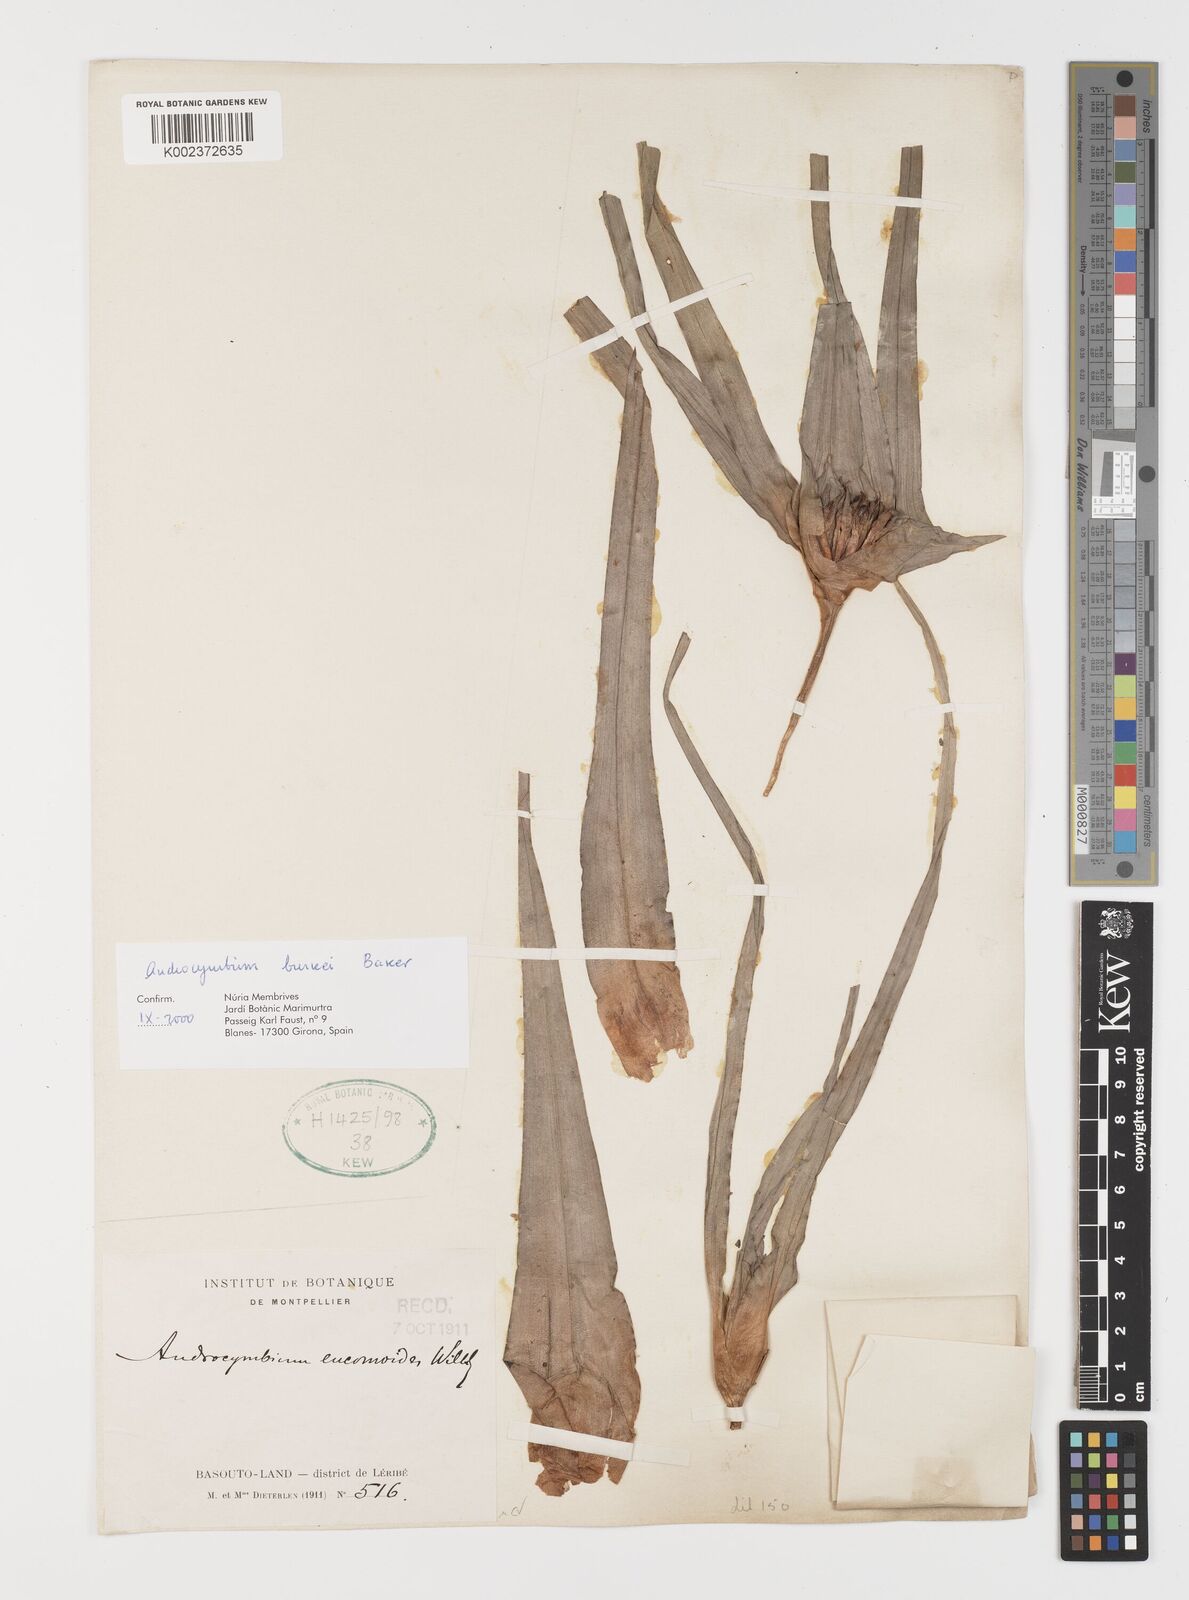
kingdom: Plantae
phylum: Tracheophyta
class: Liliopsida
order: Liliales
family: Colchicaceae
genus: Colchicum
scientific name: Colchicum burkei
